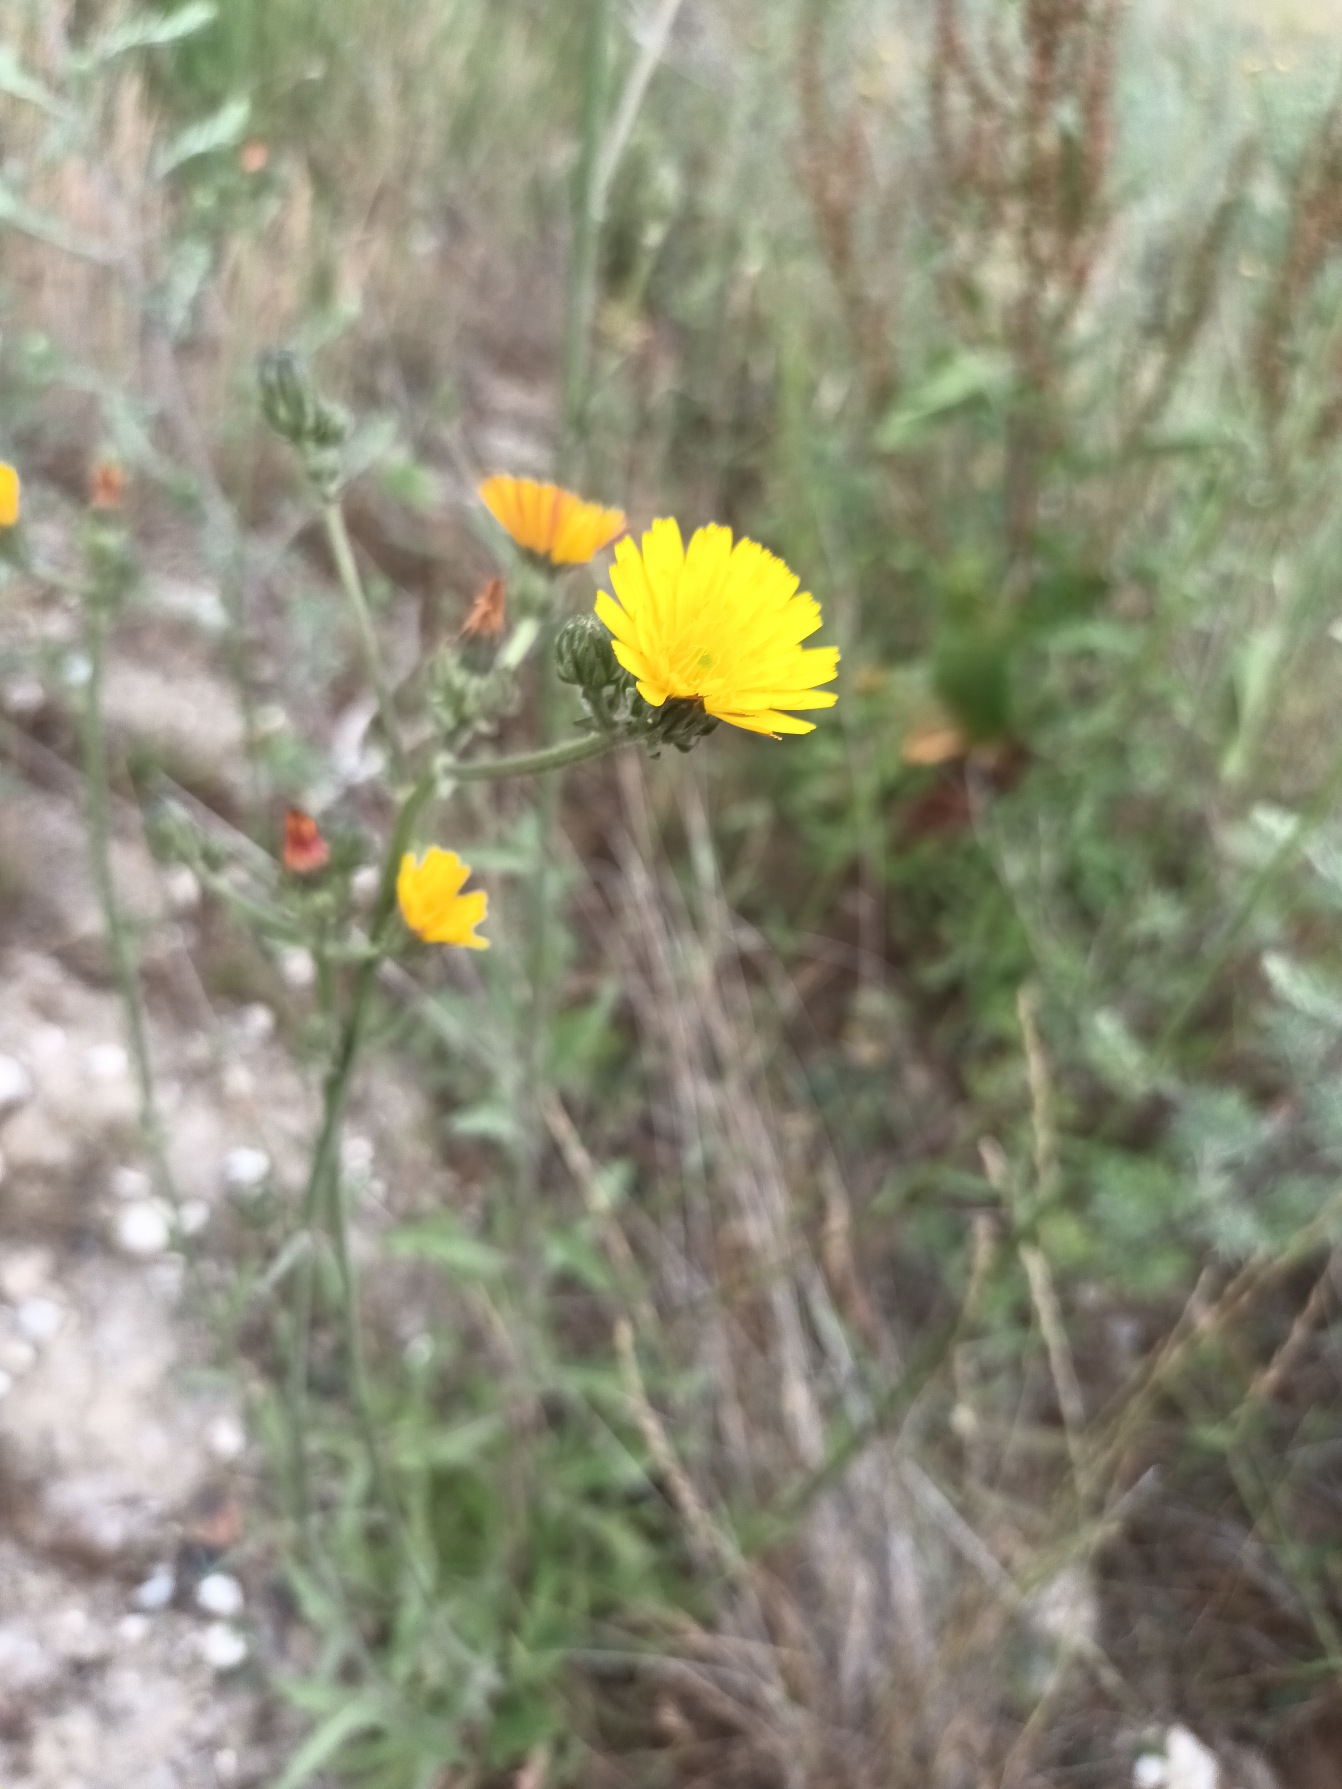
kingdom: Plantae
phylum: Tracheophyta
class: Magnoliopsida
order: Asterales
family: Asteraceae
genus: Picris
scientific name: Picris hieracioides
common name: Ru bittermælk
